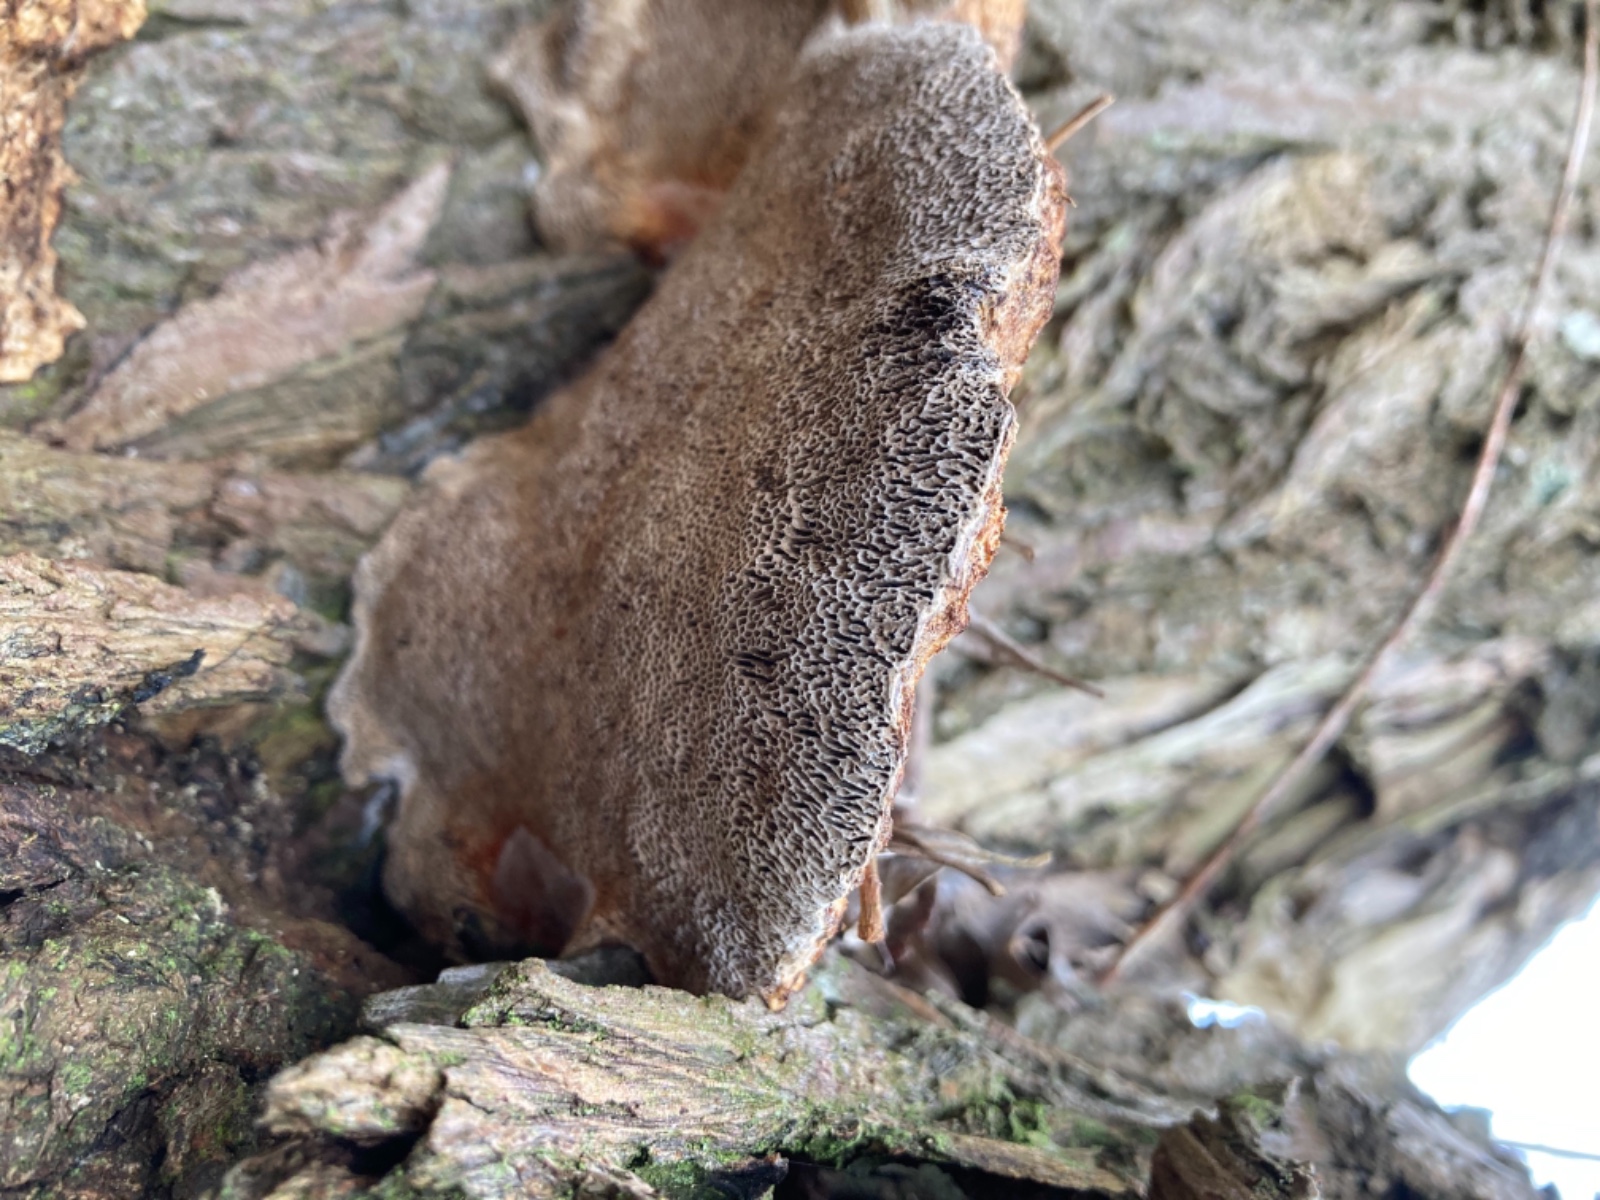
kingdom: Fungi
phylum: Basidiomycota
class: Agaricomycetes
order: Polyporales
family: Polyporaceae
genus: Daedaleopsis
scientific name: Daedaleopsis confragosa
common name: rødmende læderporesvamp
